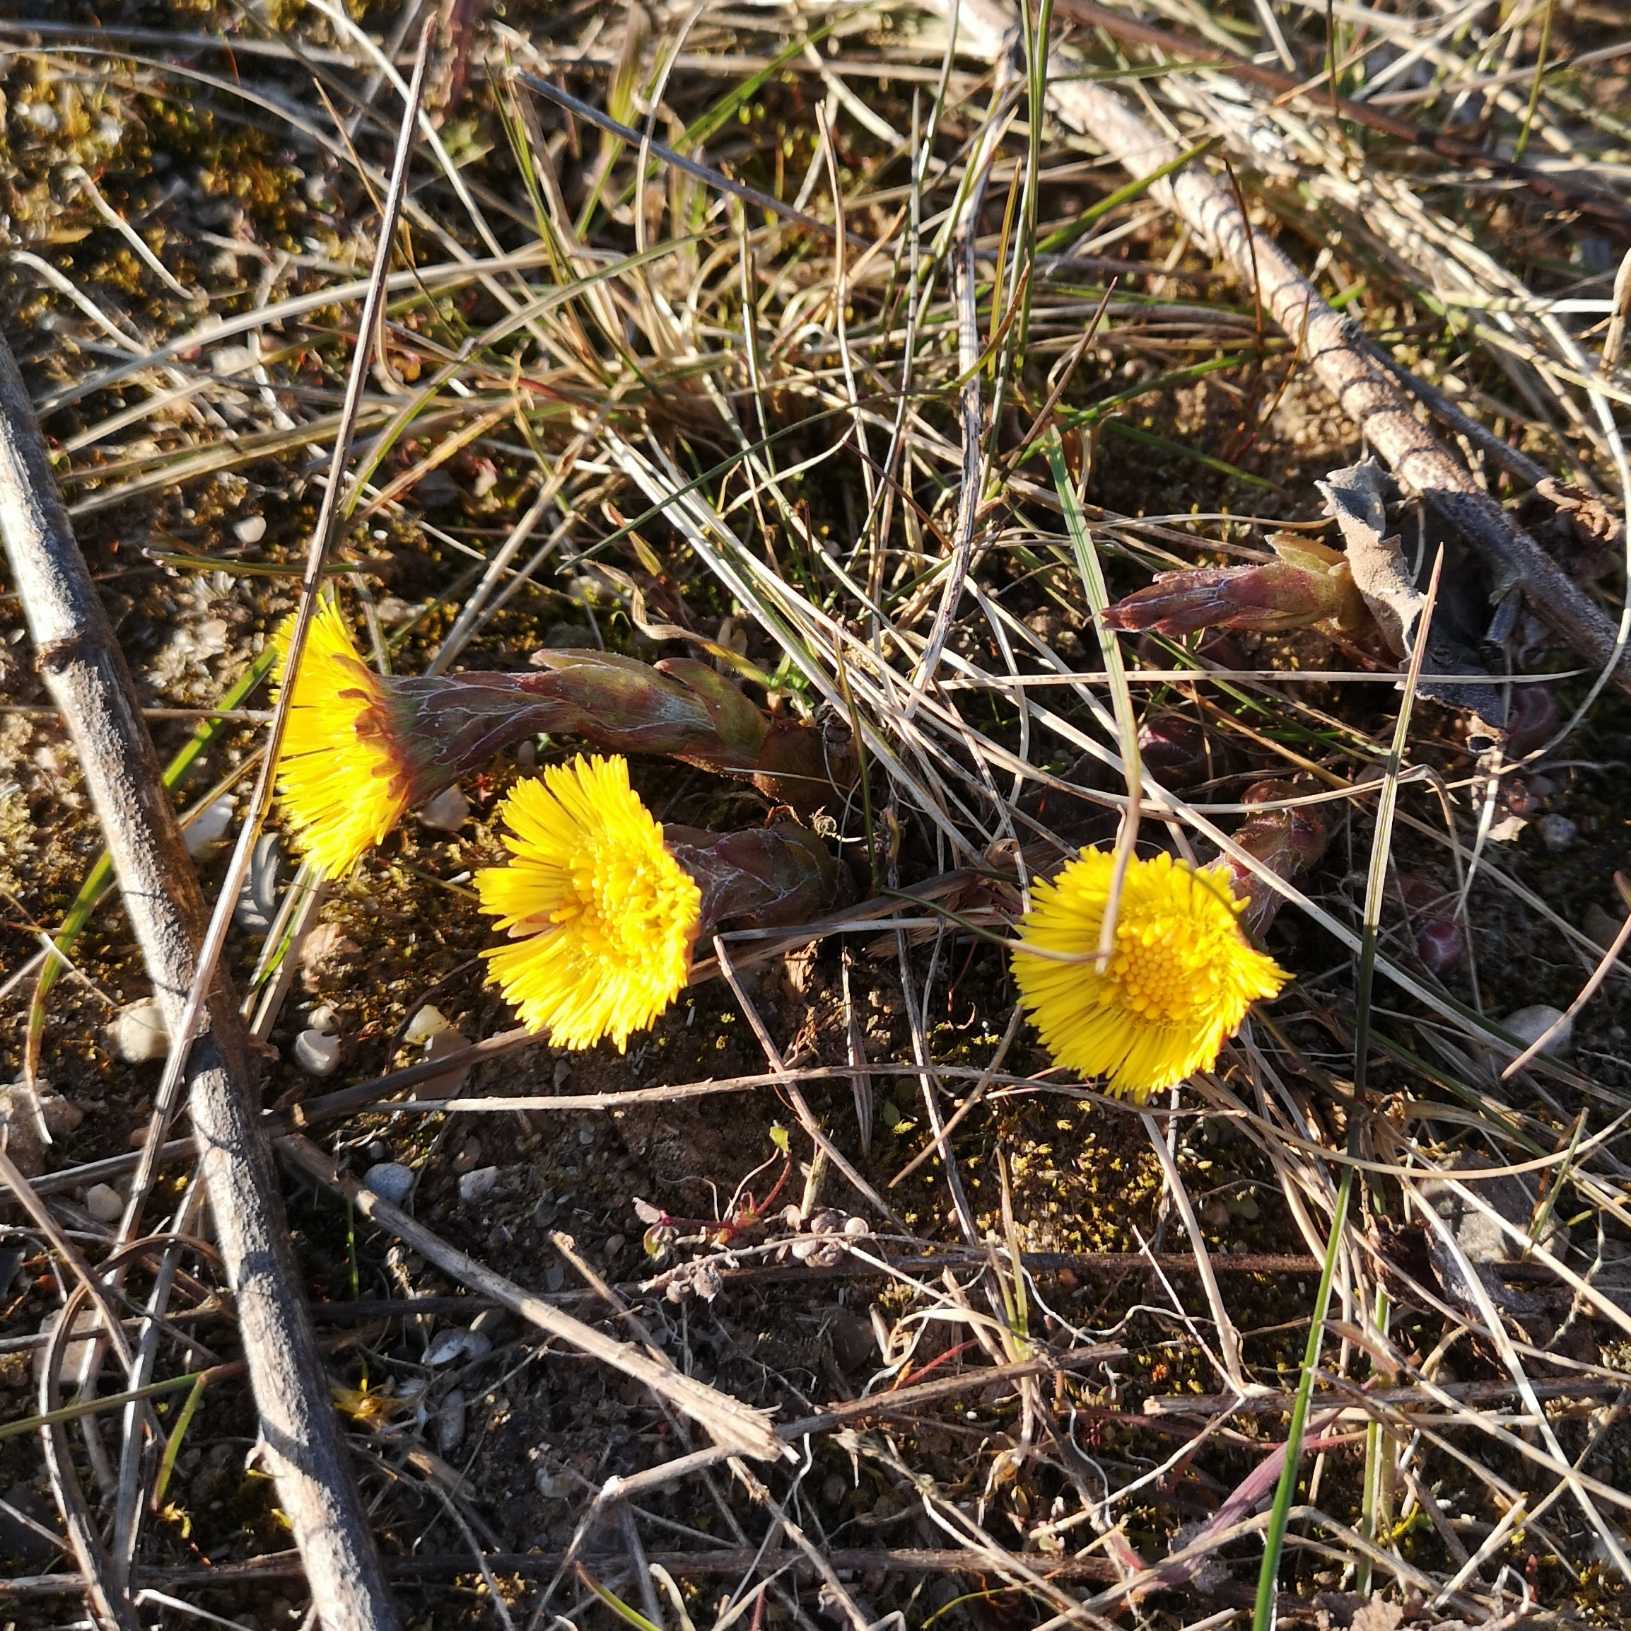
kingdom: Plantae
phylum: Tracheophyta
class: Magnoliopsida
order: Asterales
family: Asteraceae
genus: Tussilago
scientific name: Tussilago farfara
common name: Følfod
